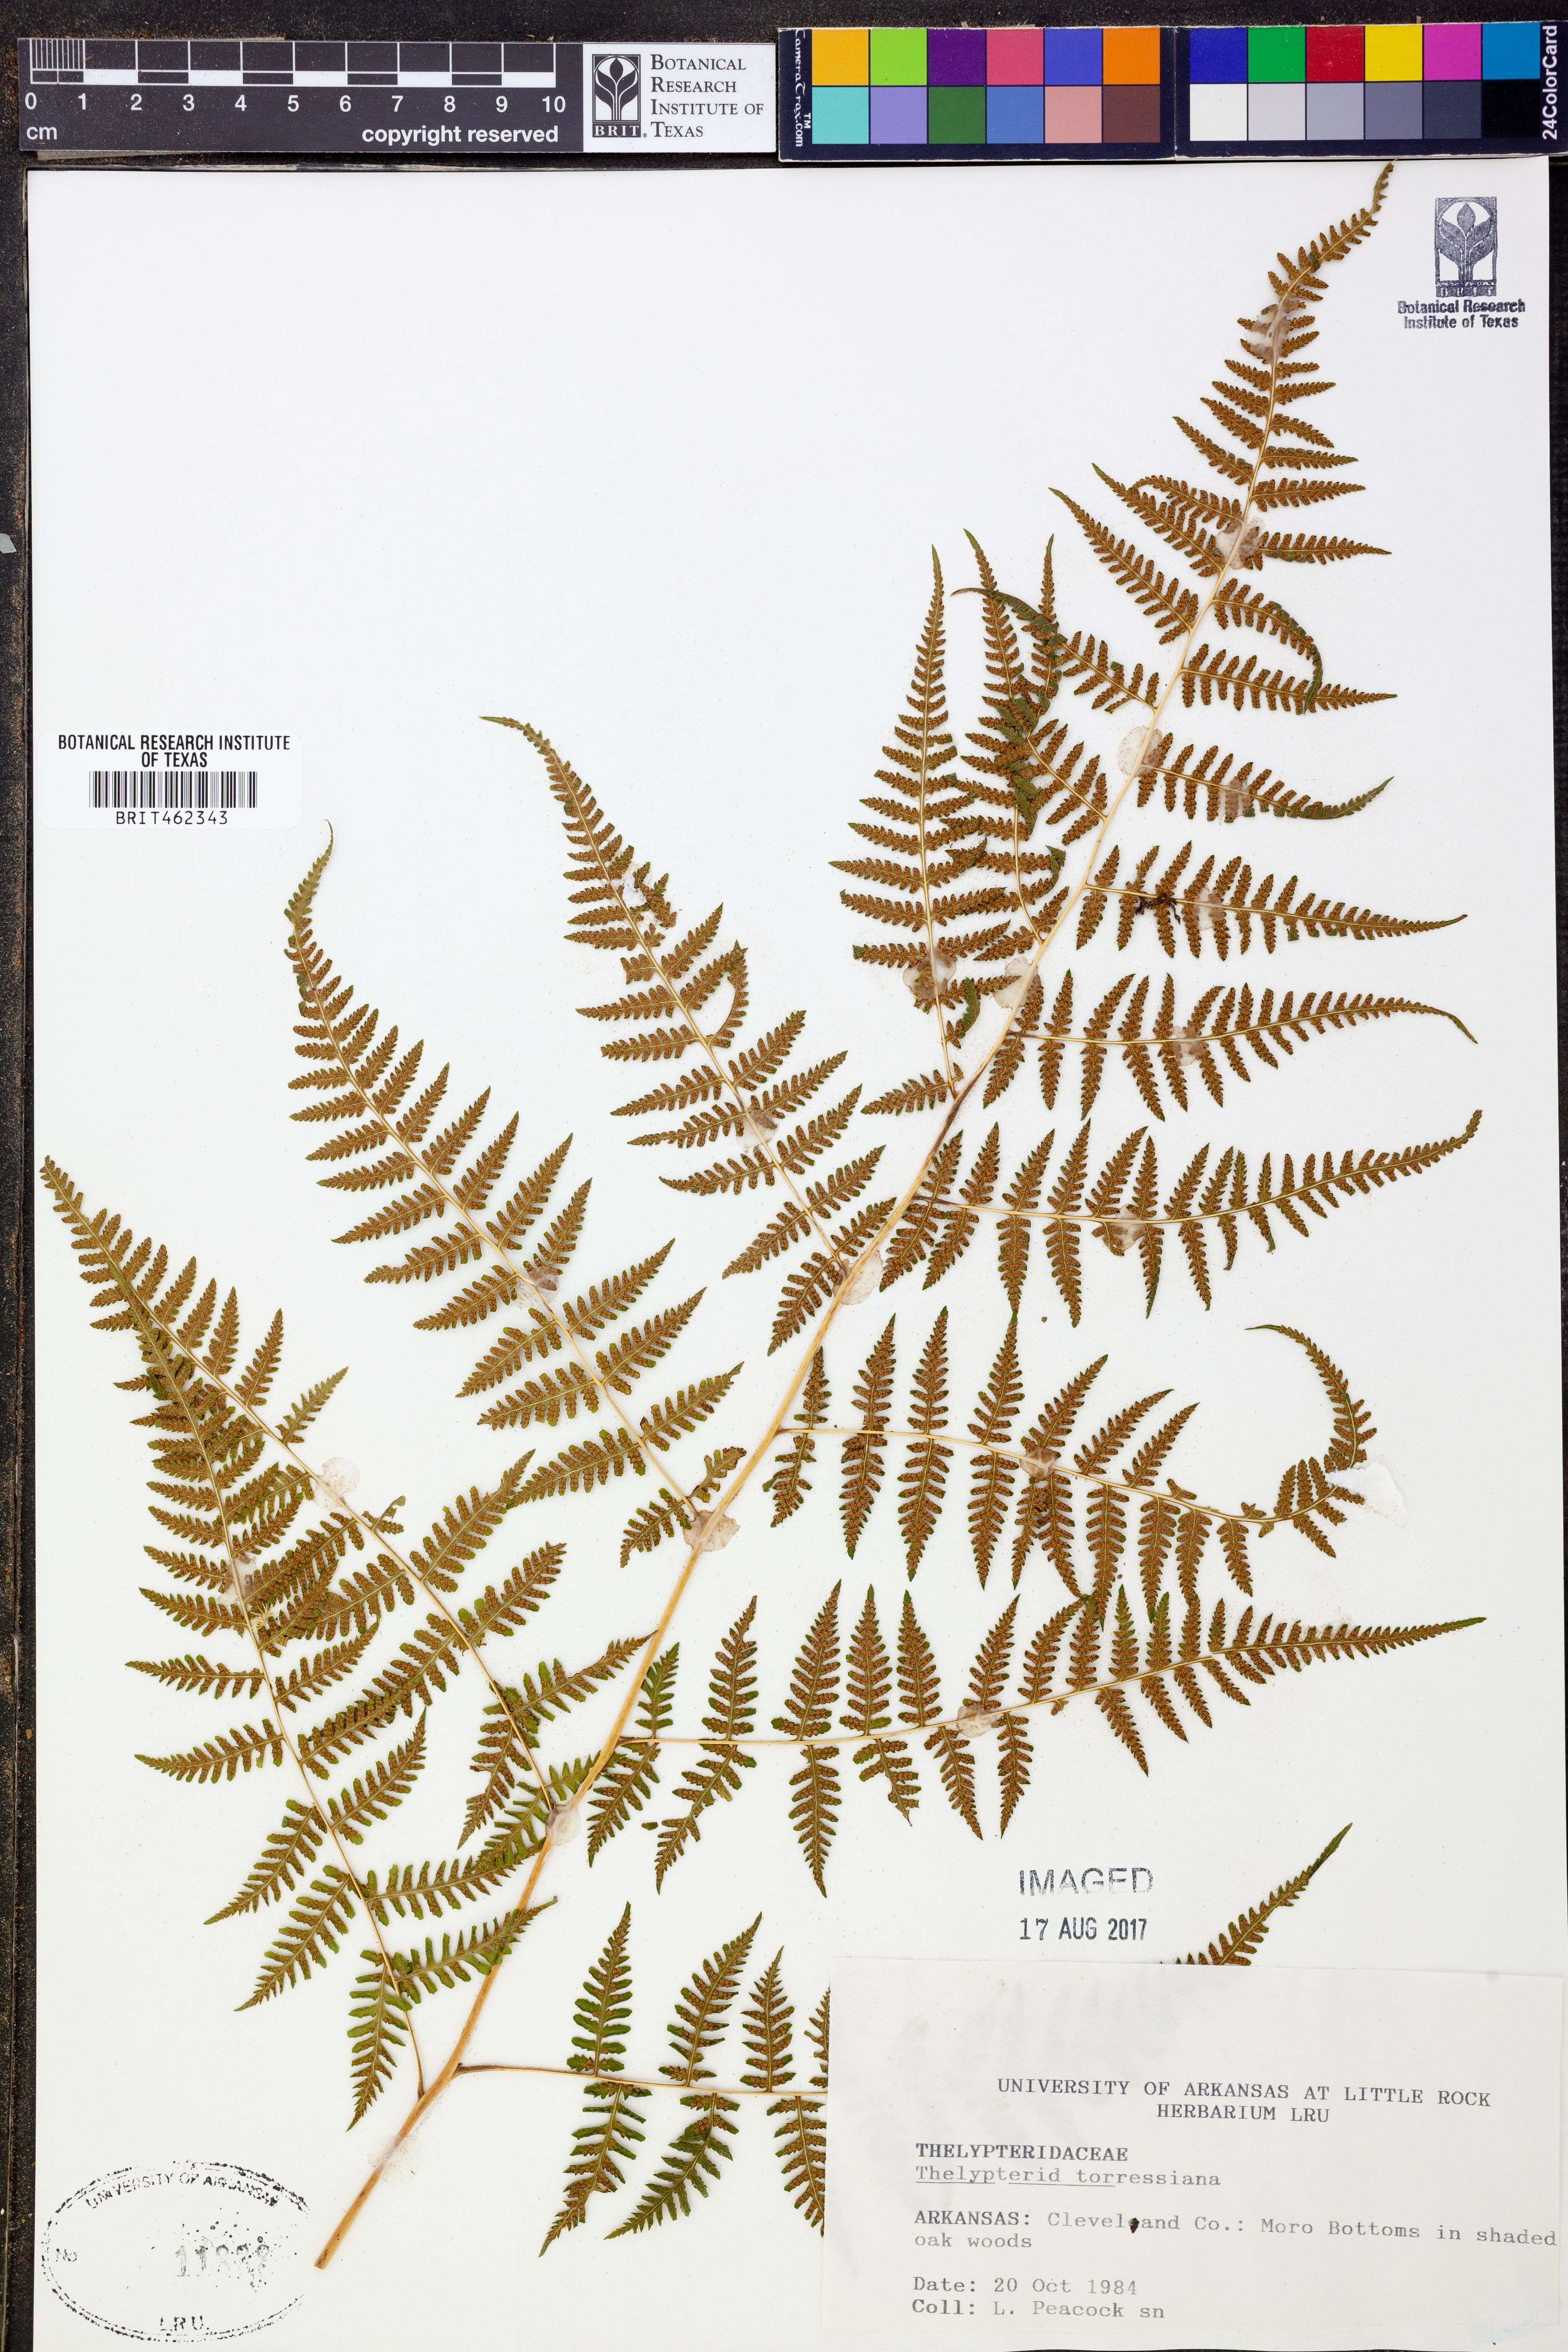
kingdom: Plantae
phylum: Tracheophyta
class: Polypodiopsida
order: Polypodiales
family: Thelypteridaceae
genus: Macrothelypteris
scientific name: Macrothelypteris torresiana
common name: Swordfern
